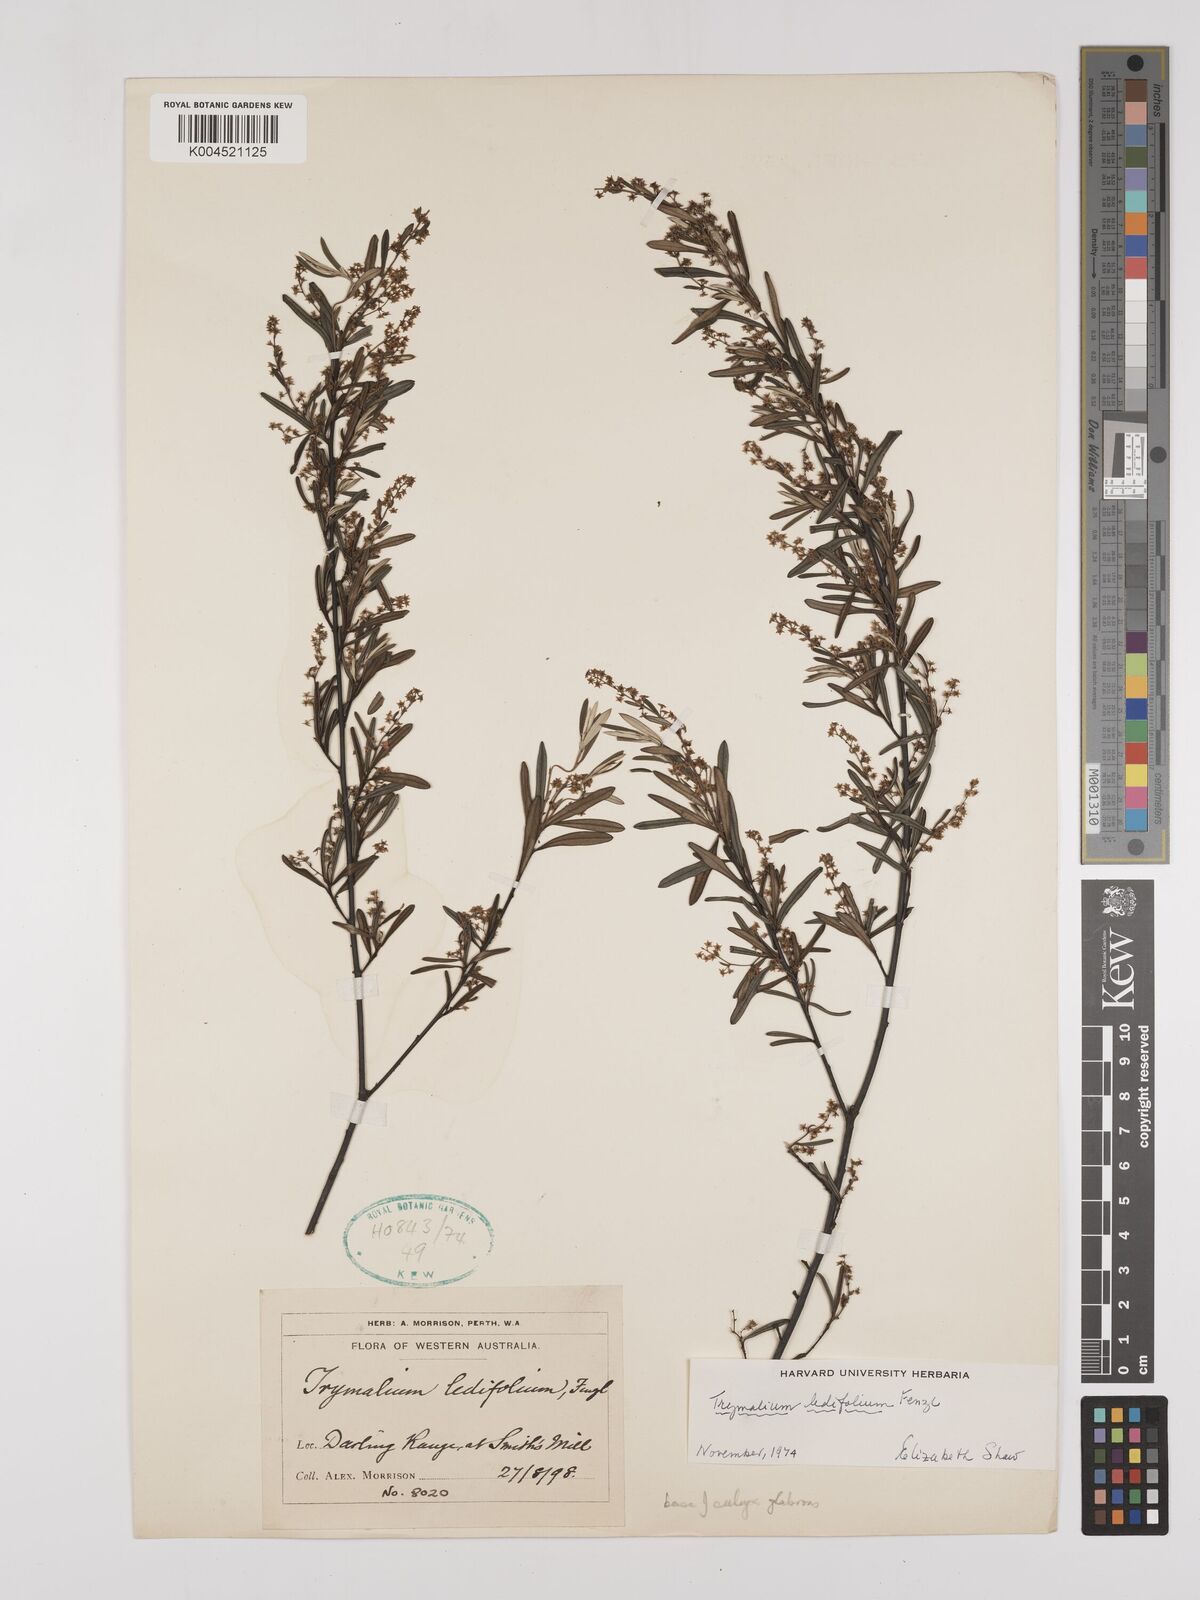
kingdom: Plantae
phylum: Tracheophyta
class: Magnoliopsida
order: Rosales
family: Rhamnaceae
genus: Trymalium
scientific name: Trymalium ledifolium
